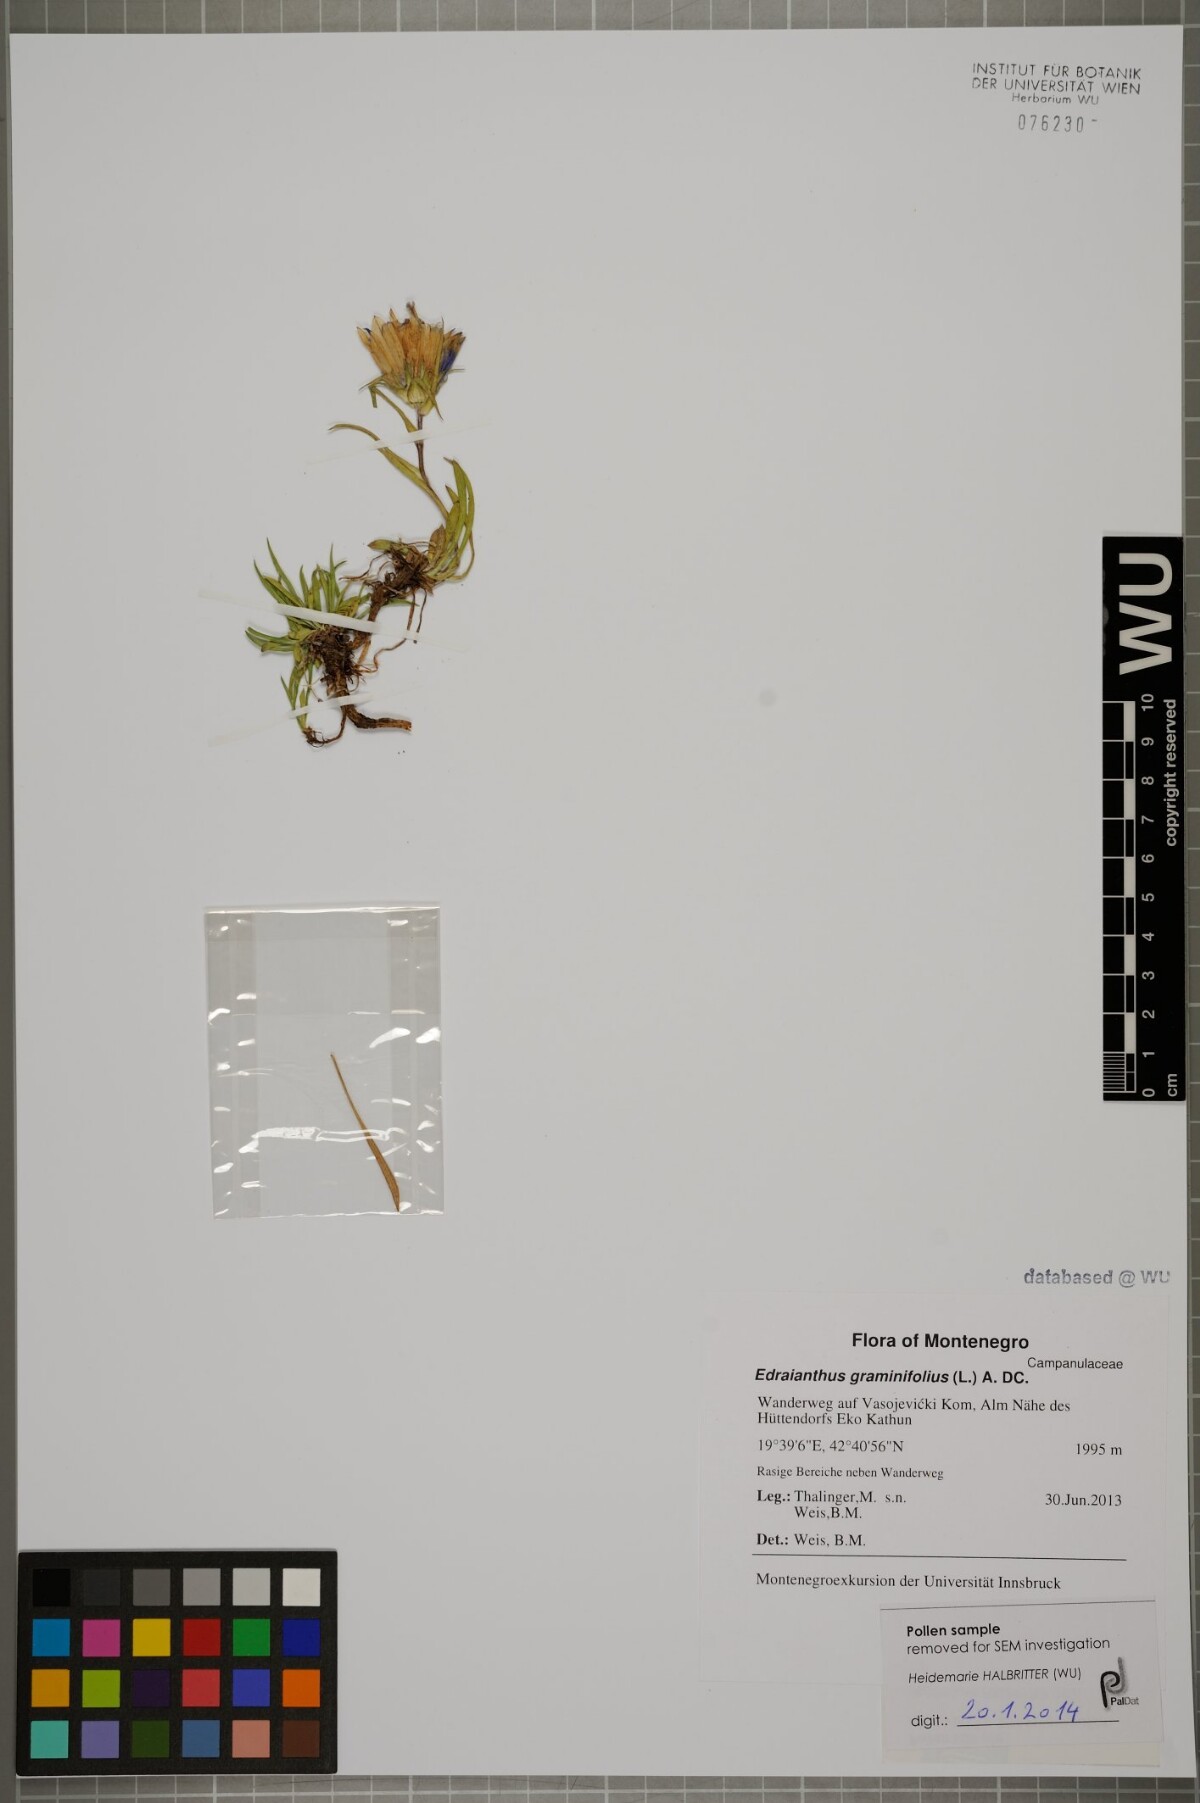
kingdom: Plantae
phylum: Tracheophyta
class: Magnoliopsida
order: Asterales
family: Campanulaceae
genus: Edraianthus
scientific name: Edraianthus graminifolius
